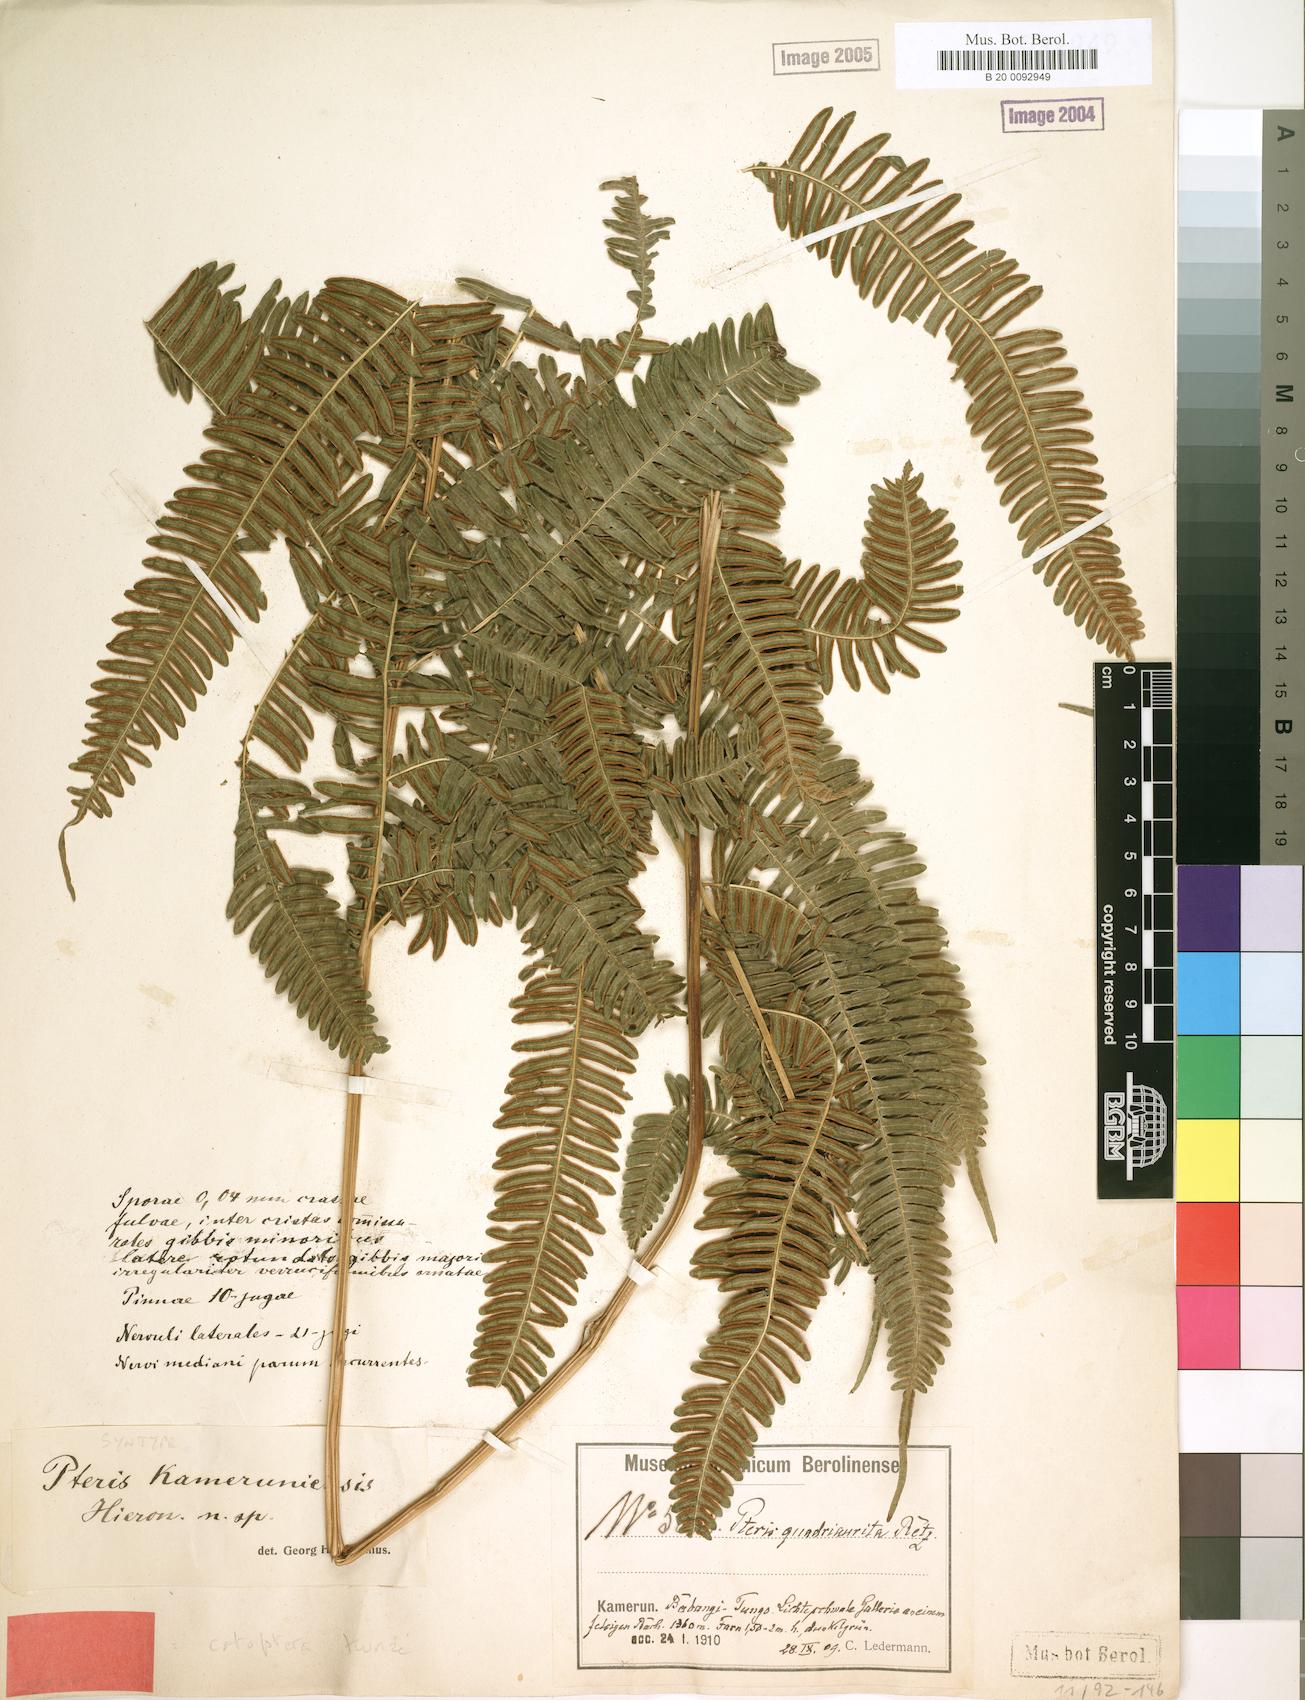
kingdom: Plantae
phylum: Tracheophyta
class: Polypodiopsida
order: Polypodiales
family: Pteridaceae
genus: Pteris
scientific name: Pteris catoptera
